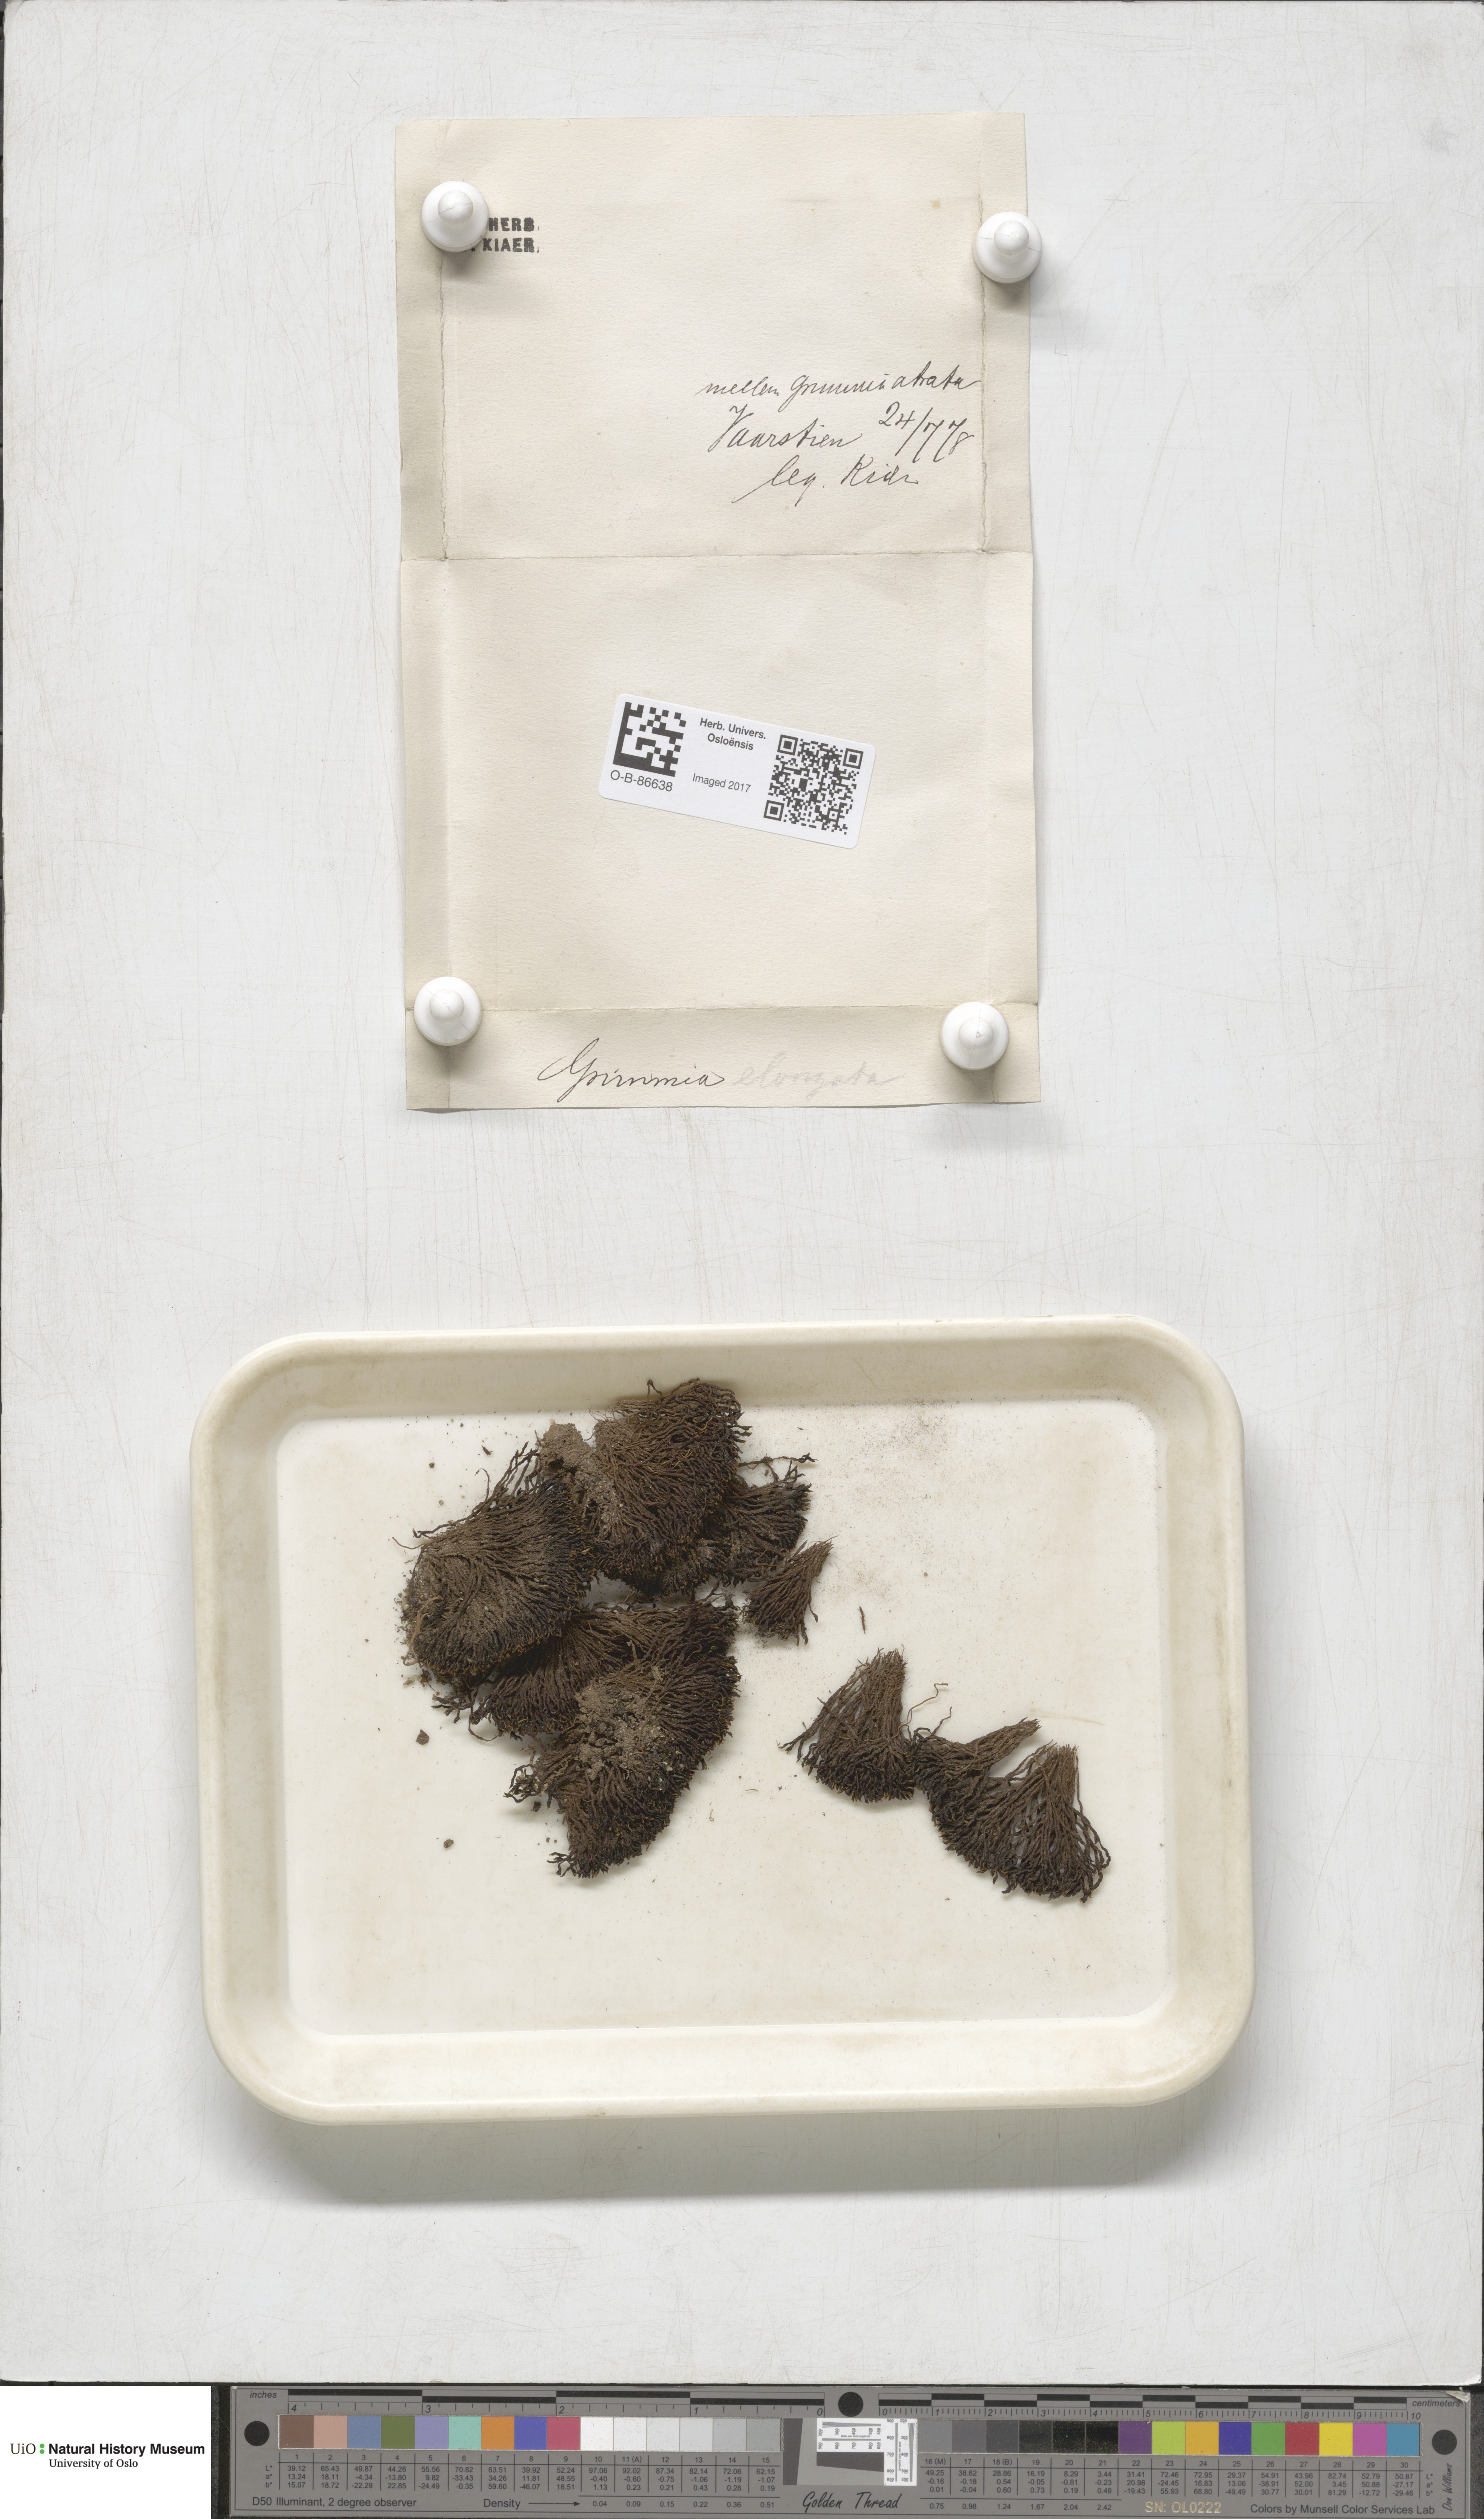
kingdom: Plantae
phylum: Bryophyta
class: Bryopsida
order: Grimmiales
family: Grimmiaceae
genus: Grimmia
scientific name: Grimmia elongata
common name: Brown grimmia
